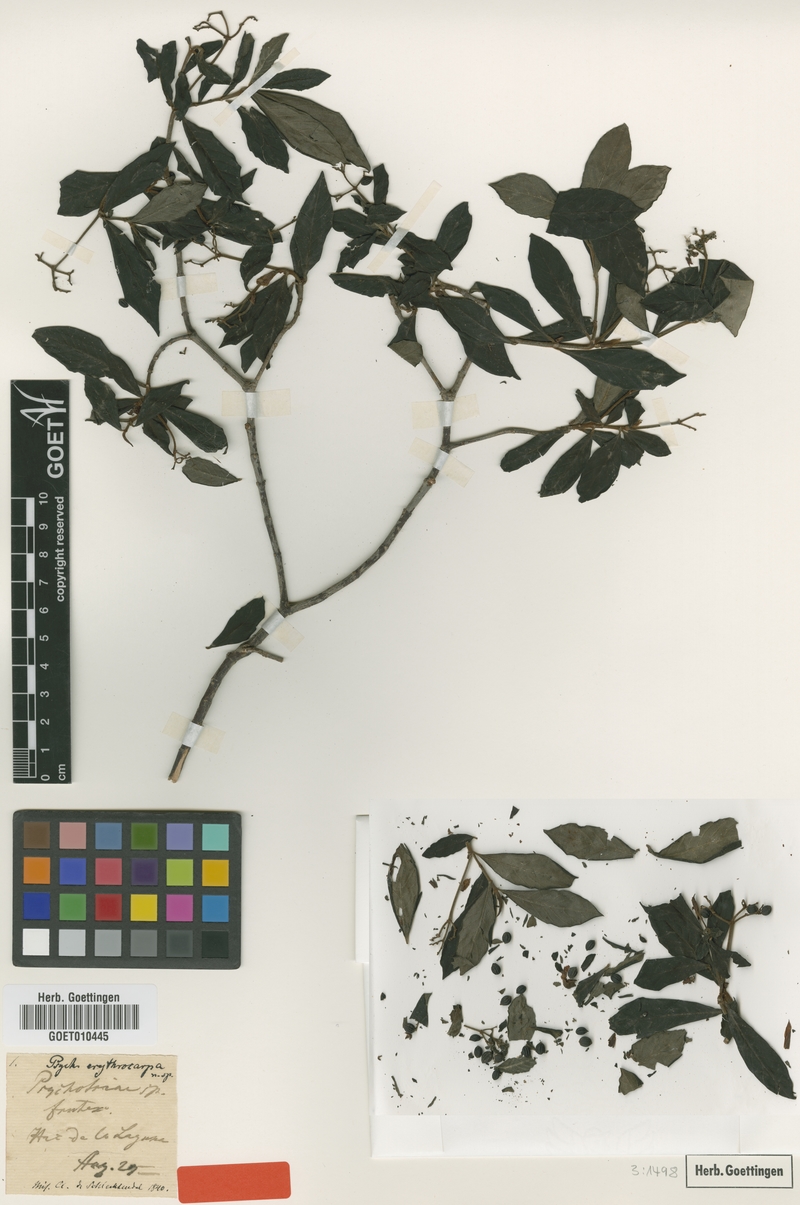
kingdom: Plantae
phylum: Tracheophyta
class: Magnoliopsida
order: Gentianales
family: Rubiaceae
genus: Psychotria
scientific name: Psychotria erythrocarpa
